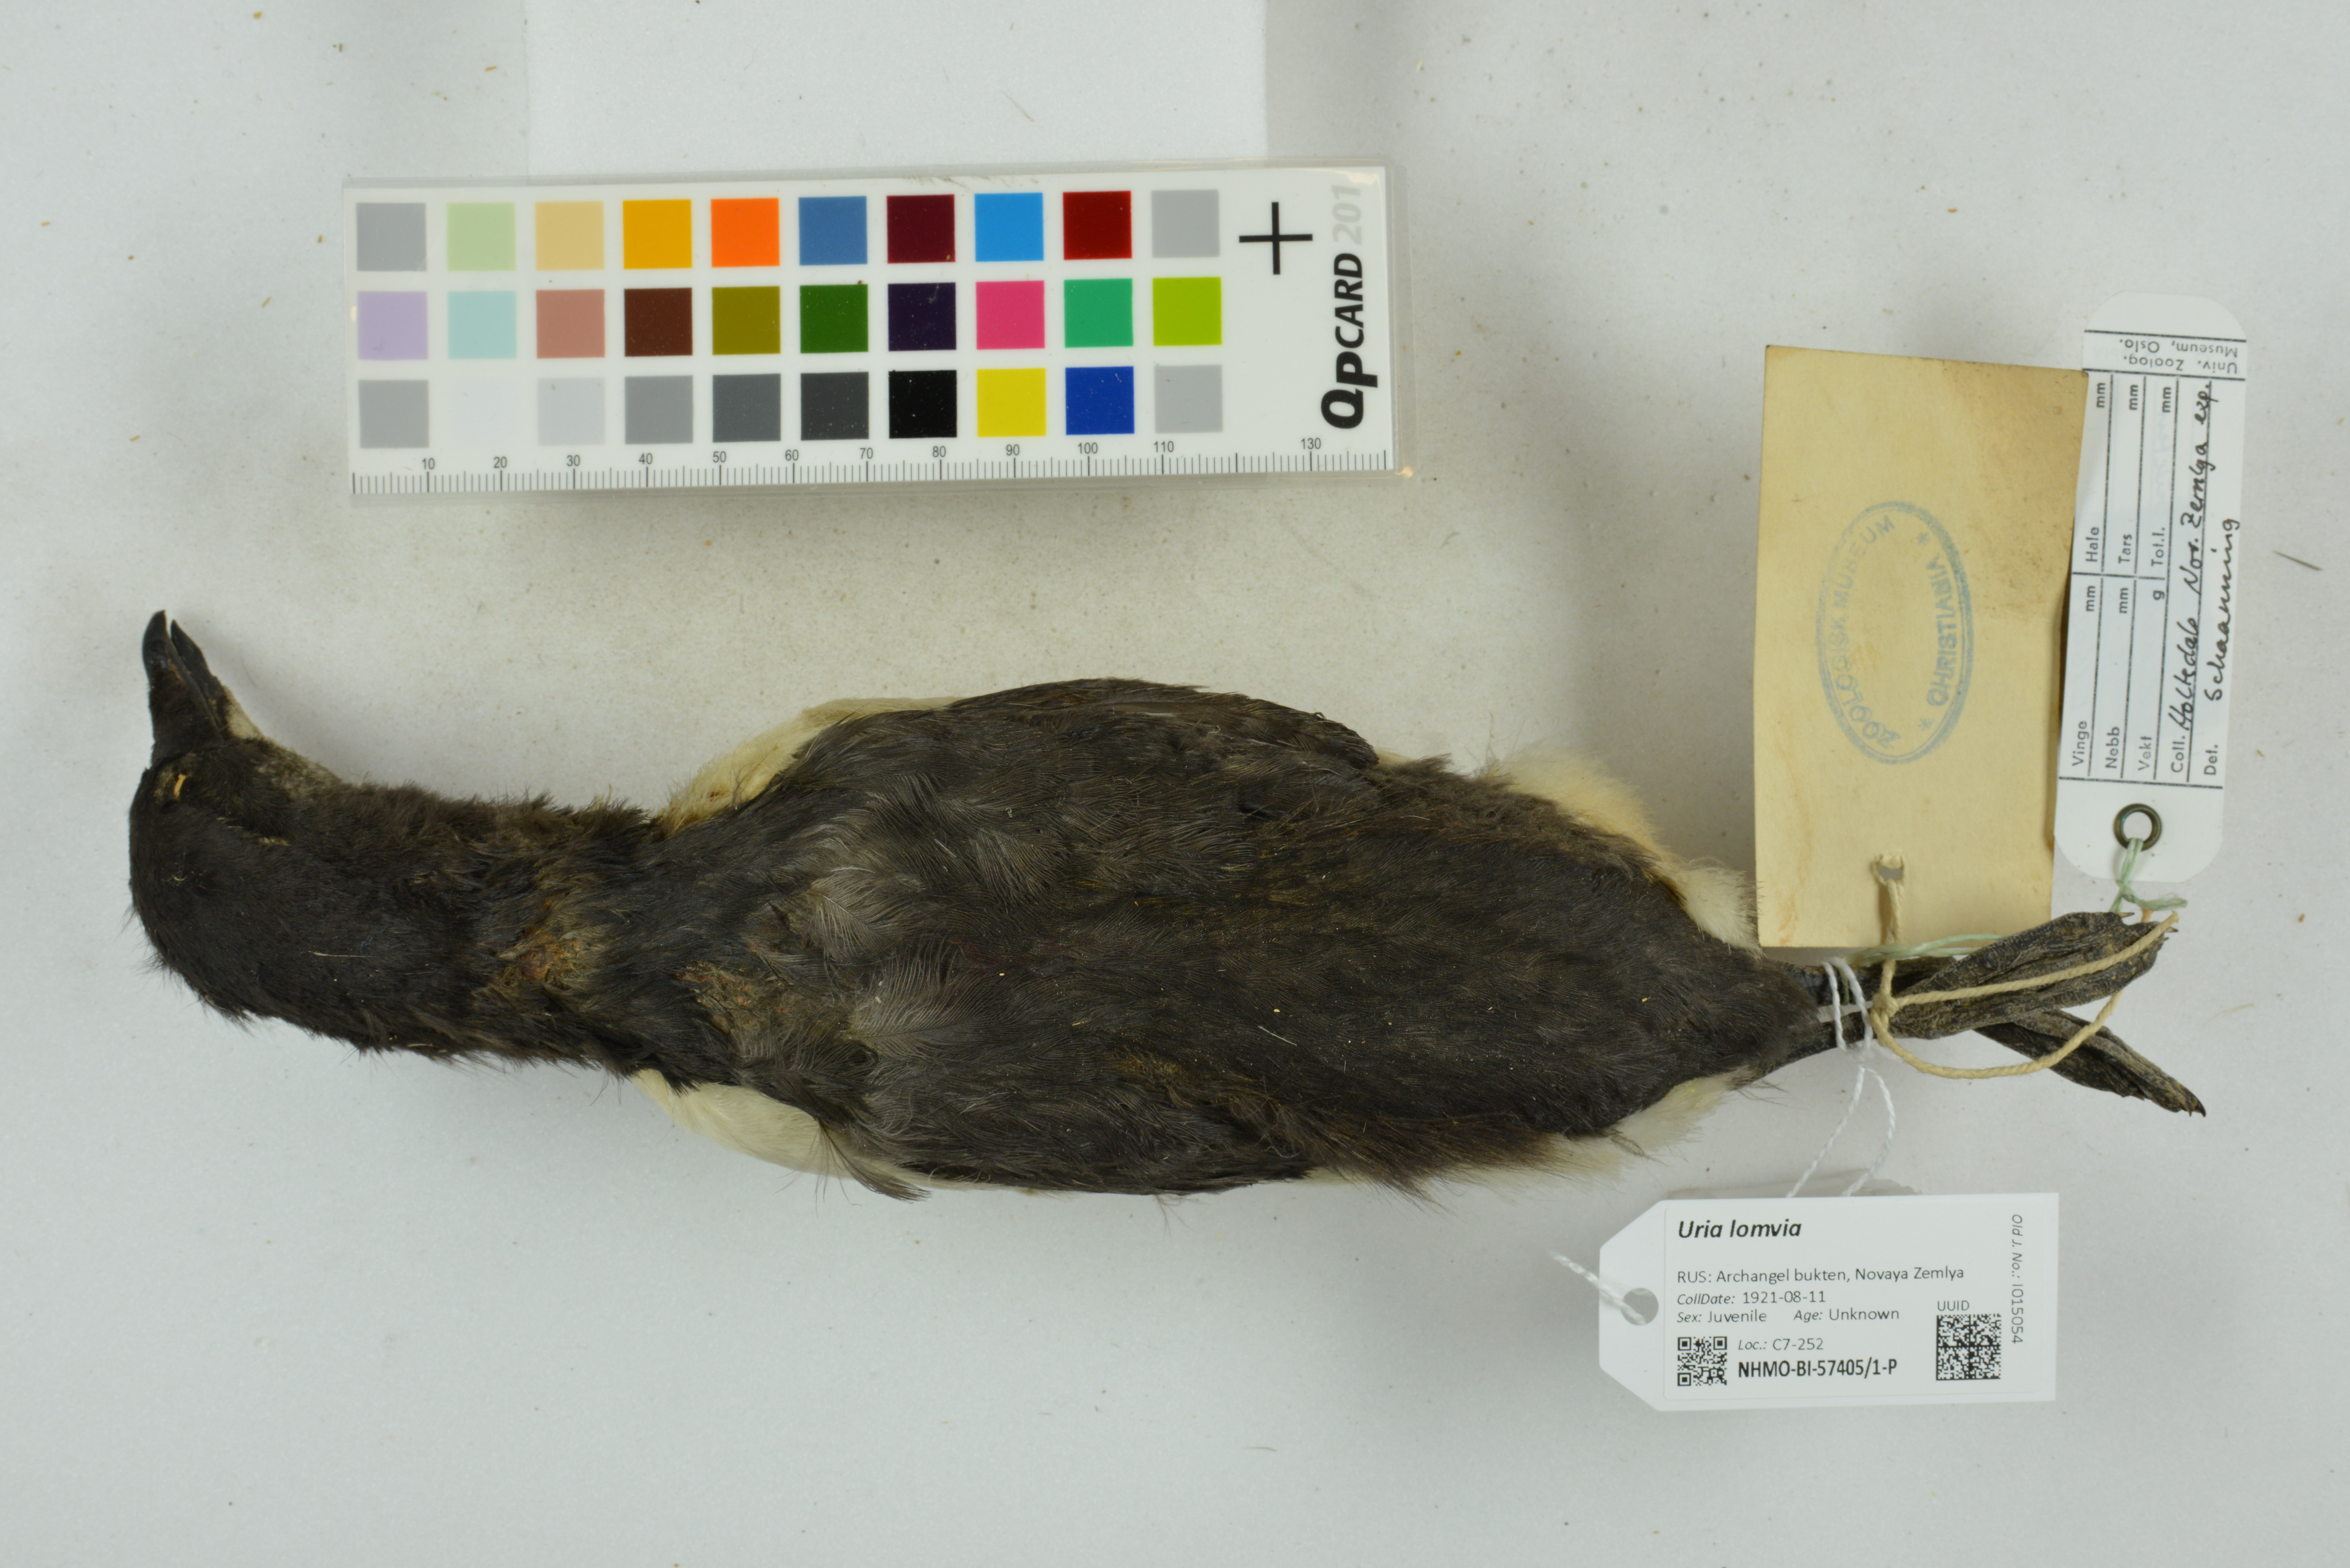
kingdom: Animalia
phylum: Chordata
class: Aves
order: Charadriiformes
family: Alcidae
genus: Uria
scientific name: Uria lomvia
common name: Thick-billed murre
